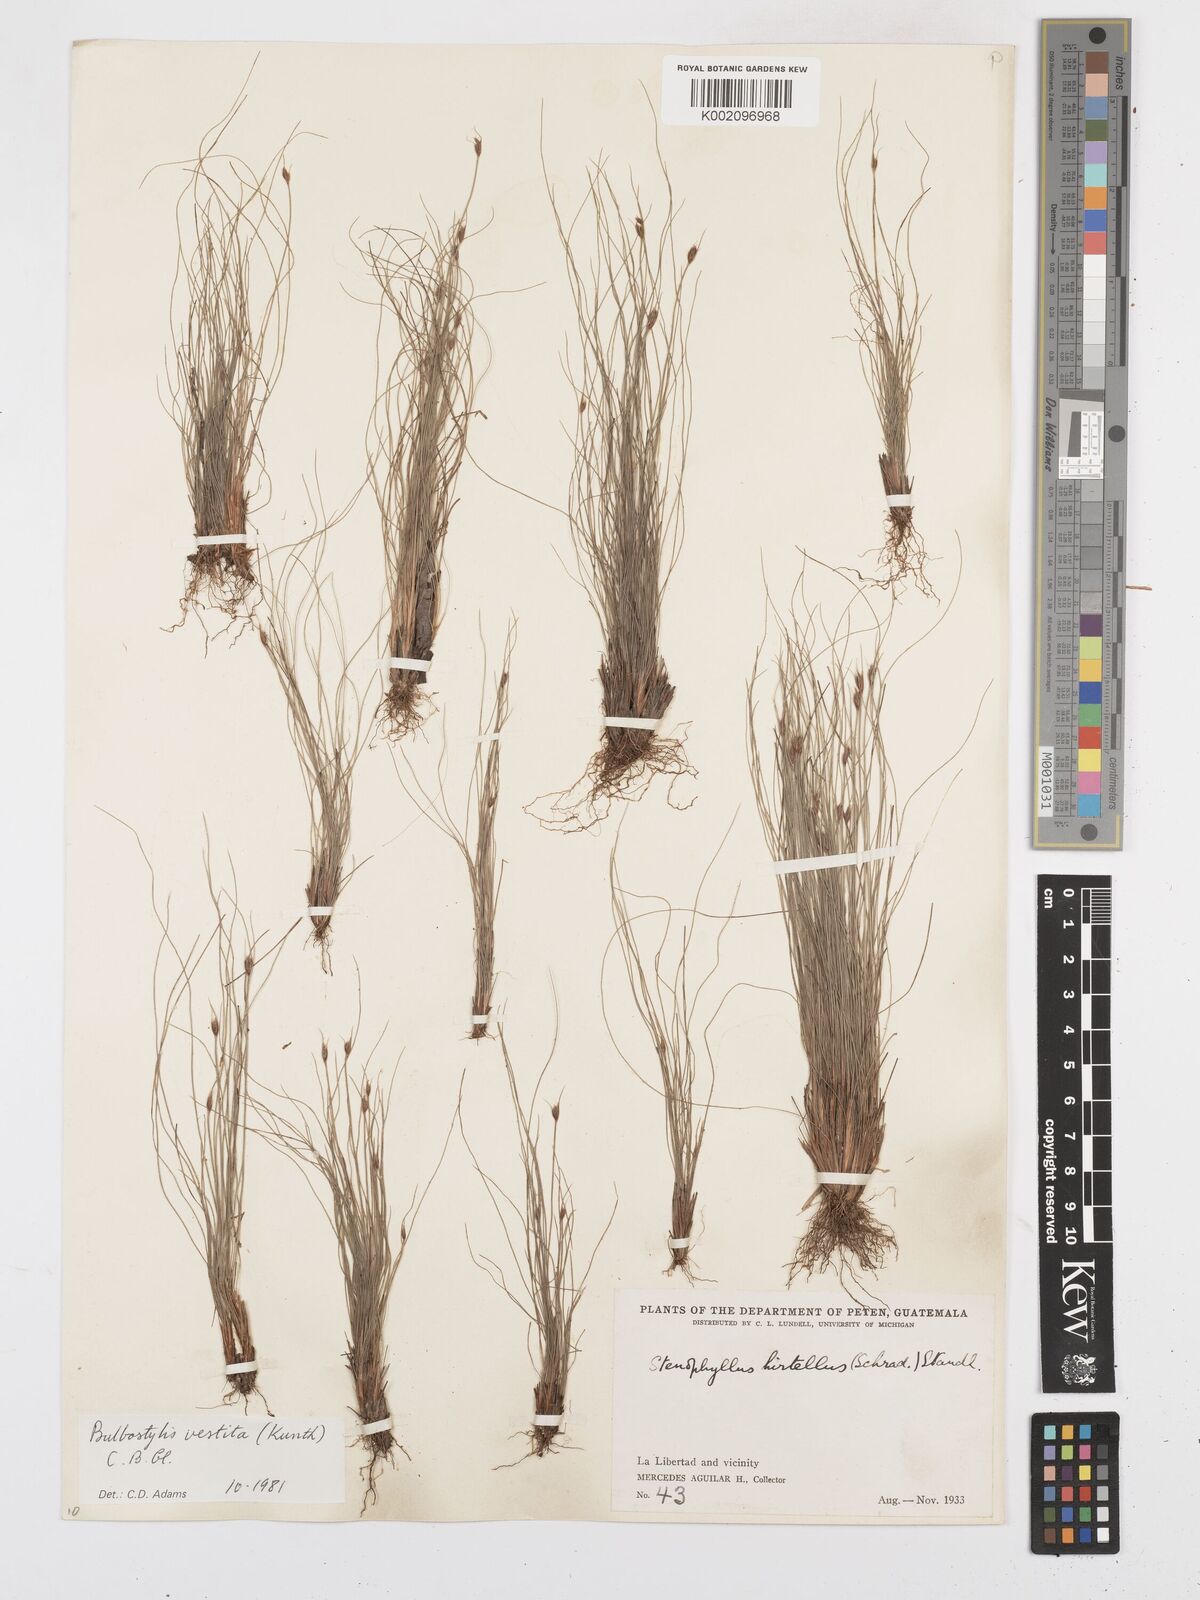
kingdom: Plantae
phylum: Tracheophyta
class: Liliopsida
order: Poales
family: Cyperaceae
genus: Bulbostylis
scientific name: Bulbostylis vestita
